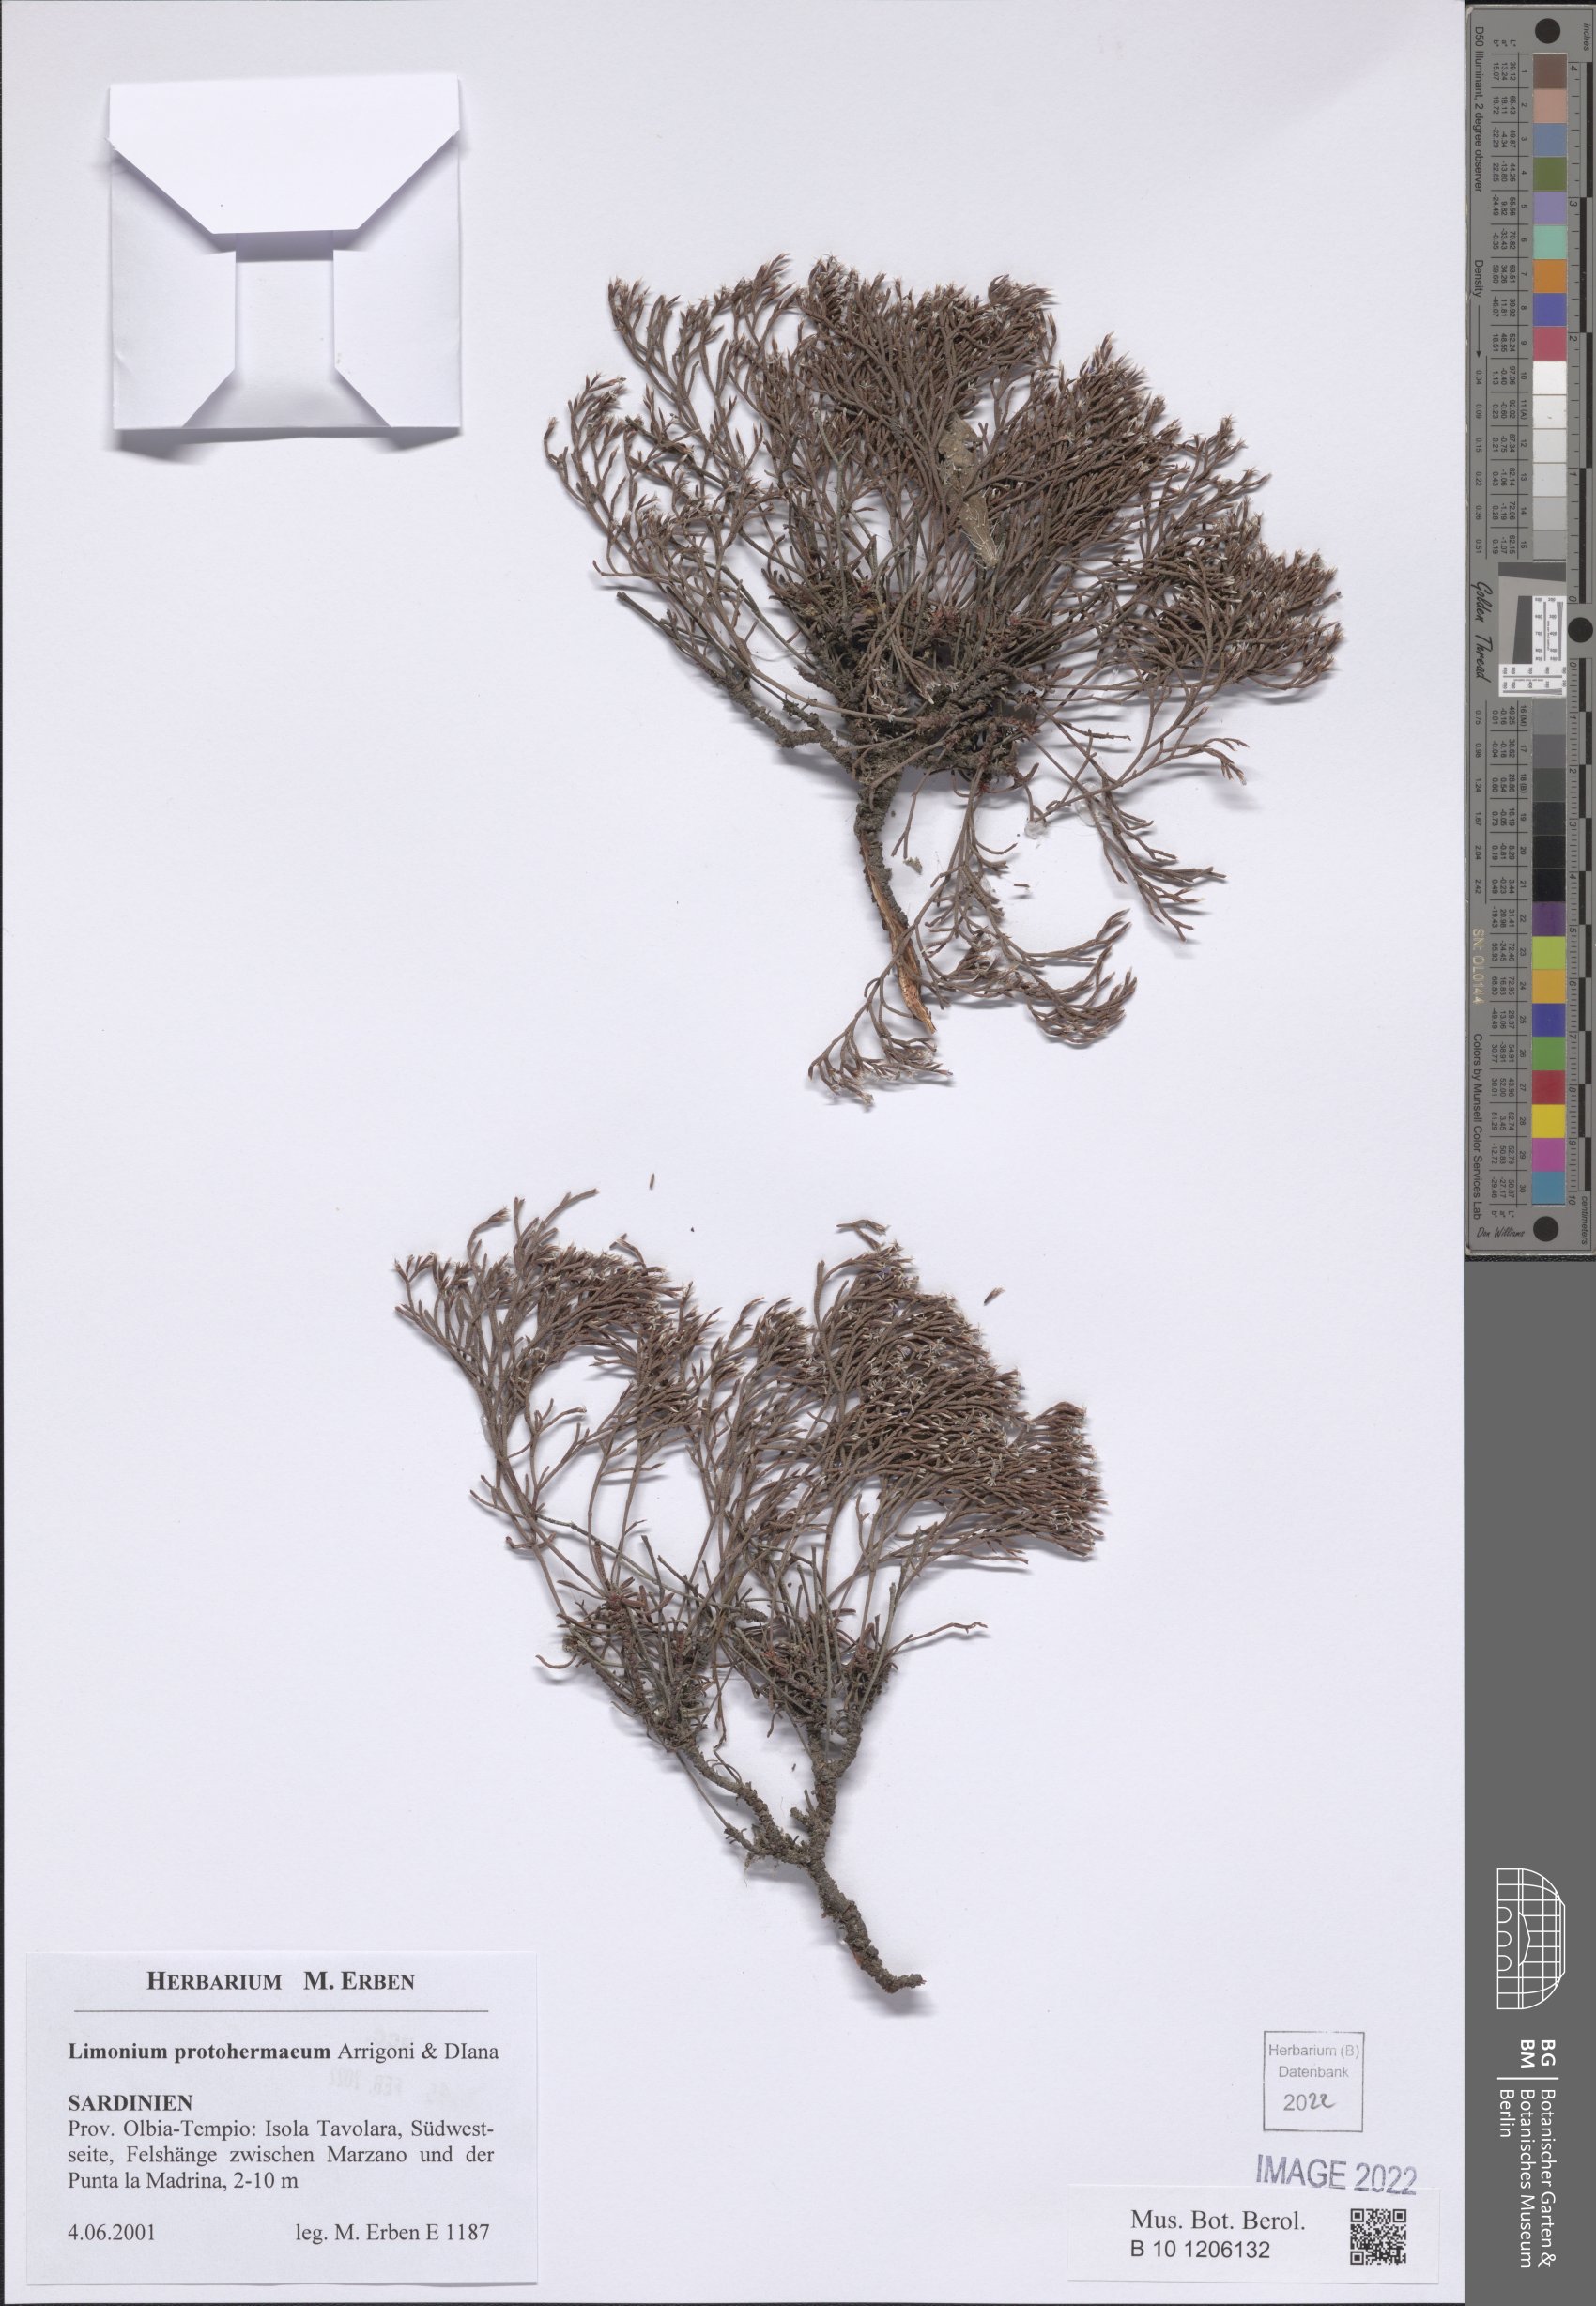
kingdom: Plantae
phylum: Tracheophyta
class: Magnoliopsida
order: Caryophyllales
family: Plumbaginaceae
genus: Limonium
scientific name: Limonium protohermaeum
